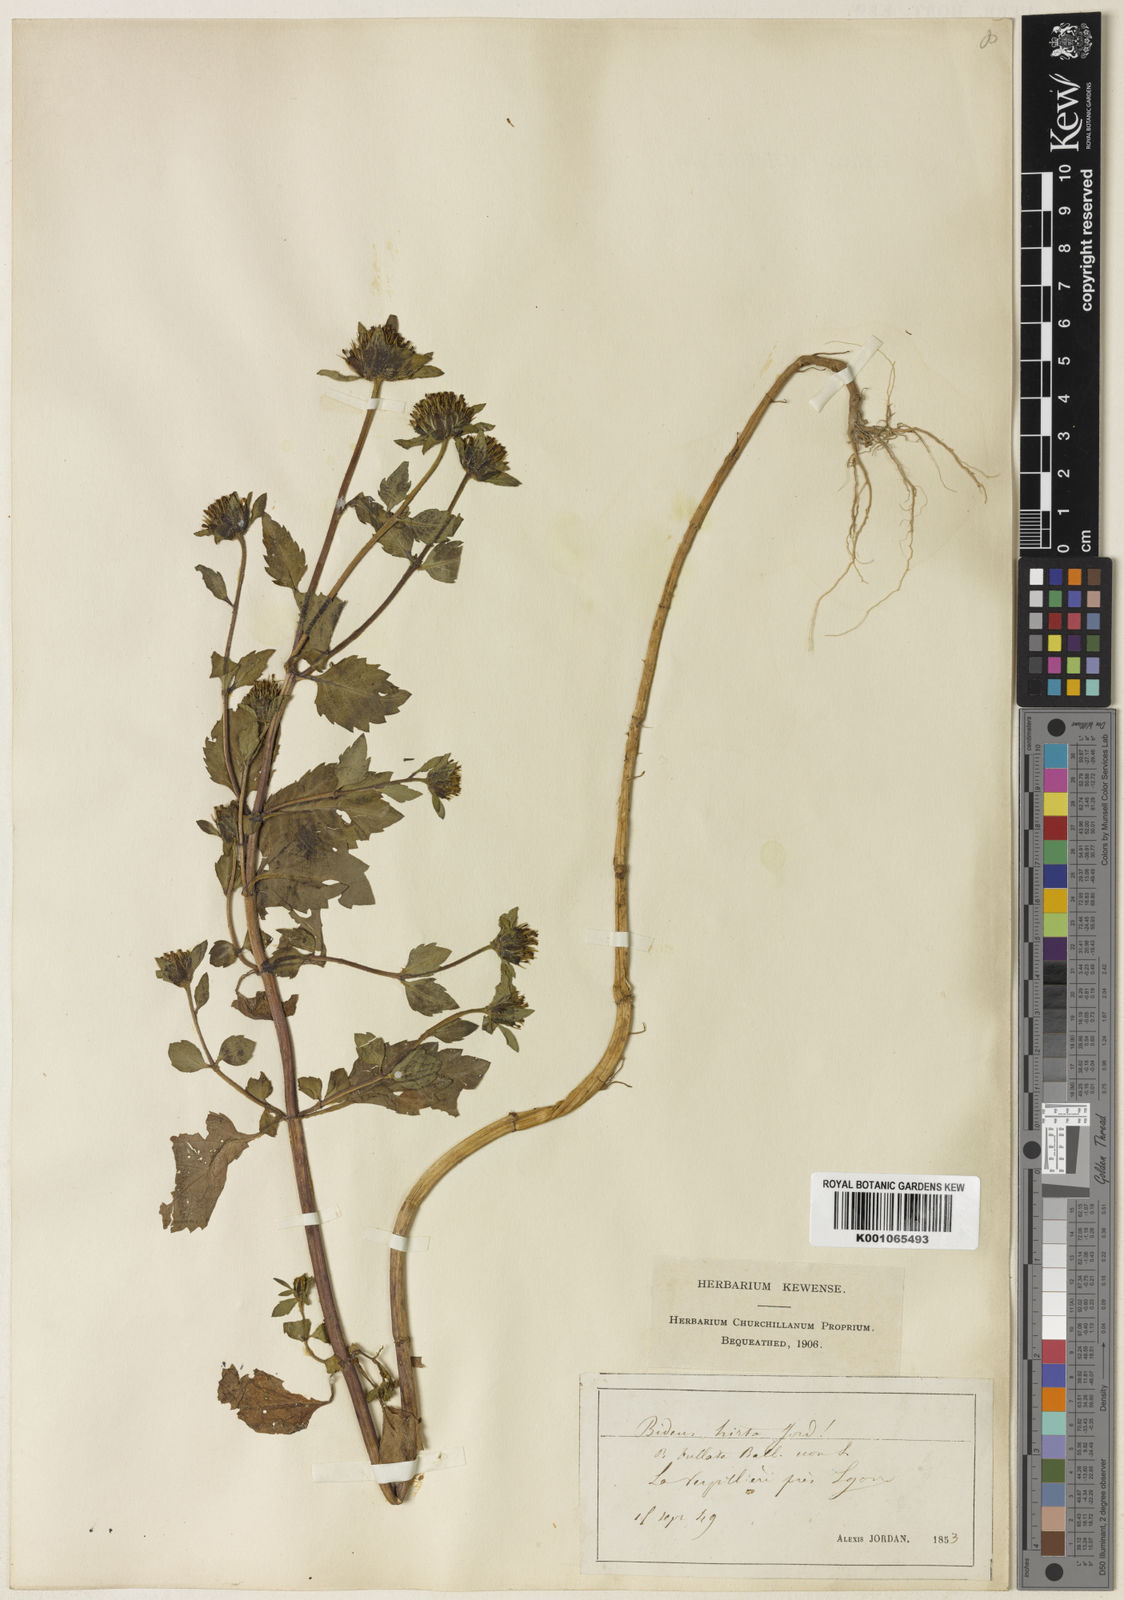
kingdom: Plantae
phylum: Tracheophyta
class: Magnoliopsida
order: Asterales
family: Asteraceae
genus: Bidens
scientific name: Bidens
